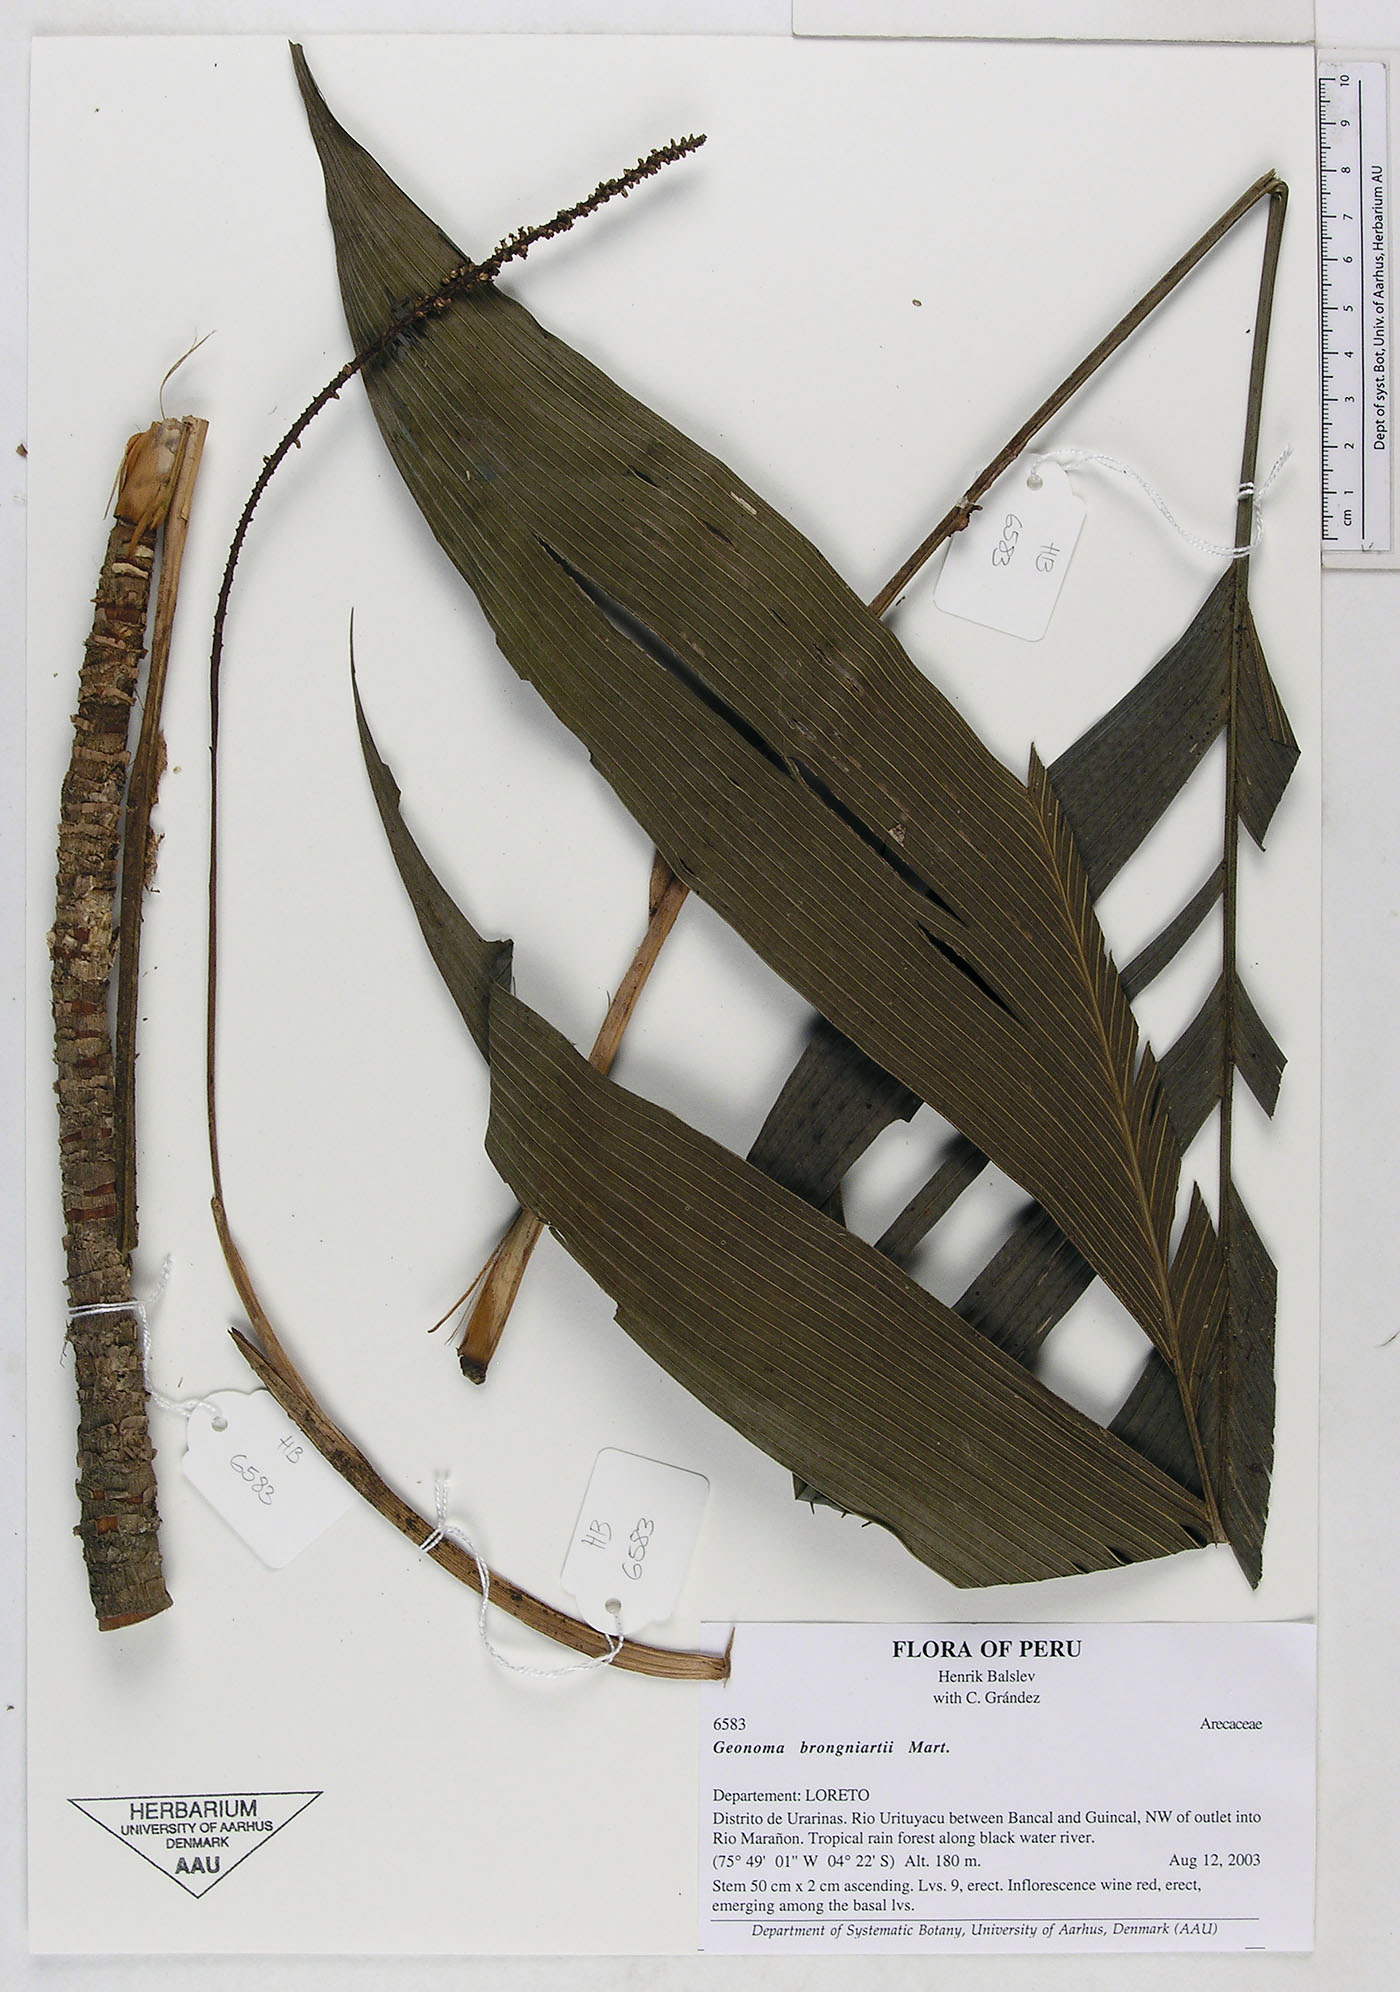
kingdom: Plantae
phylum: Tracheophyta
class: Liliopsida
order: Arecales
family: Arecaceae
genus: Geonoma
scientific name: Geonoma brongniartii
